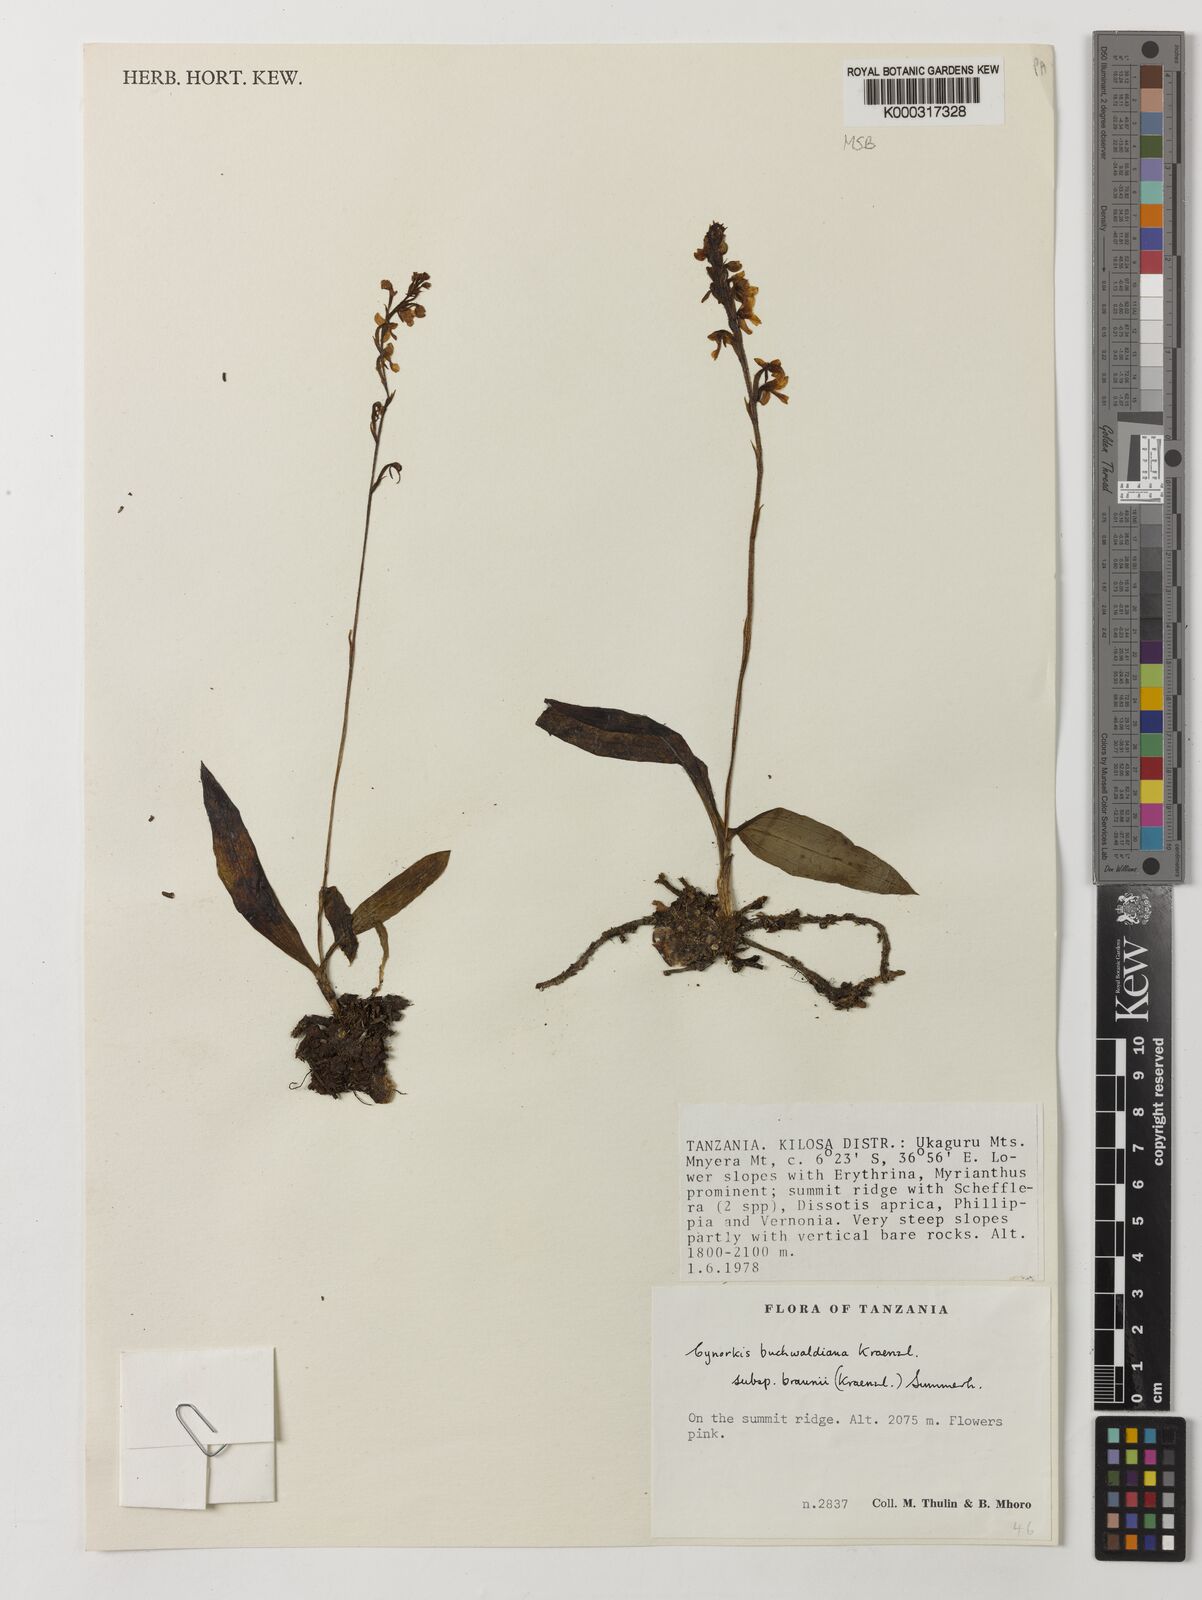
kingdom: Plantae
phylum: Tracheophyta
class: Liliopsida
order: Asparagales
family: Orchidaceae
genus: Cynorkis
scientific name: Cynorkis buchwaldiana
